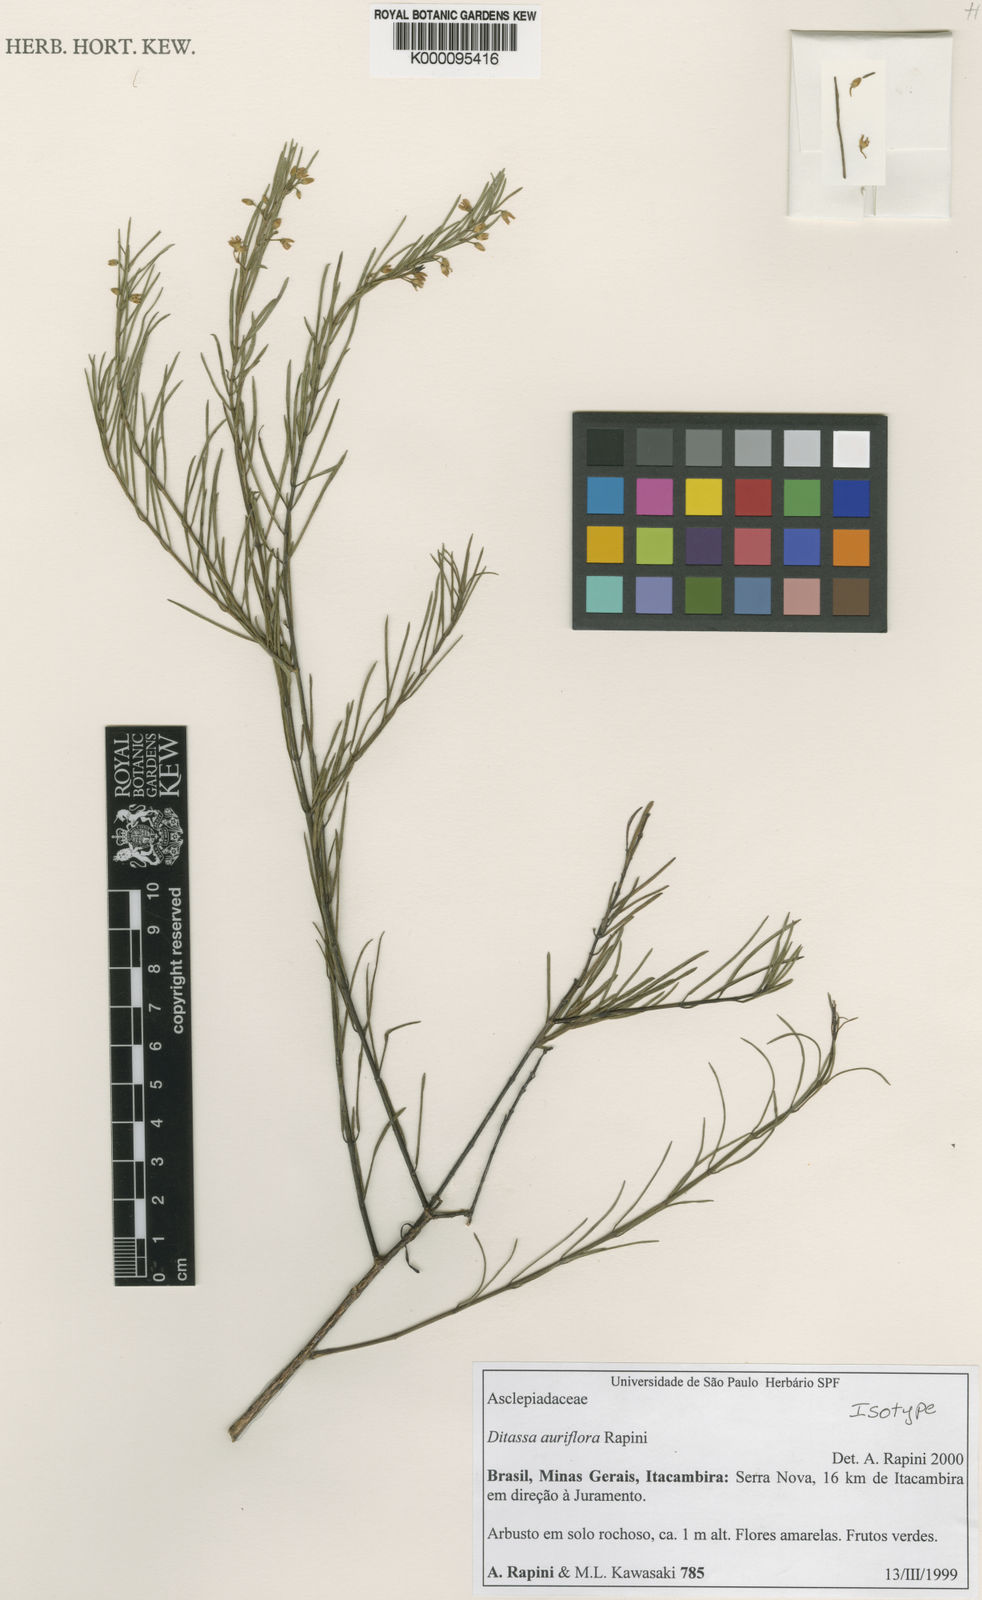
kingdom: Plantae
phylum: Tracheophyta
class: Magnoliopsida
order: Gentianales
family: Apocynaceae
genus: Ditassa
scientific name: Ditassa auriflora
